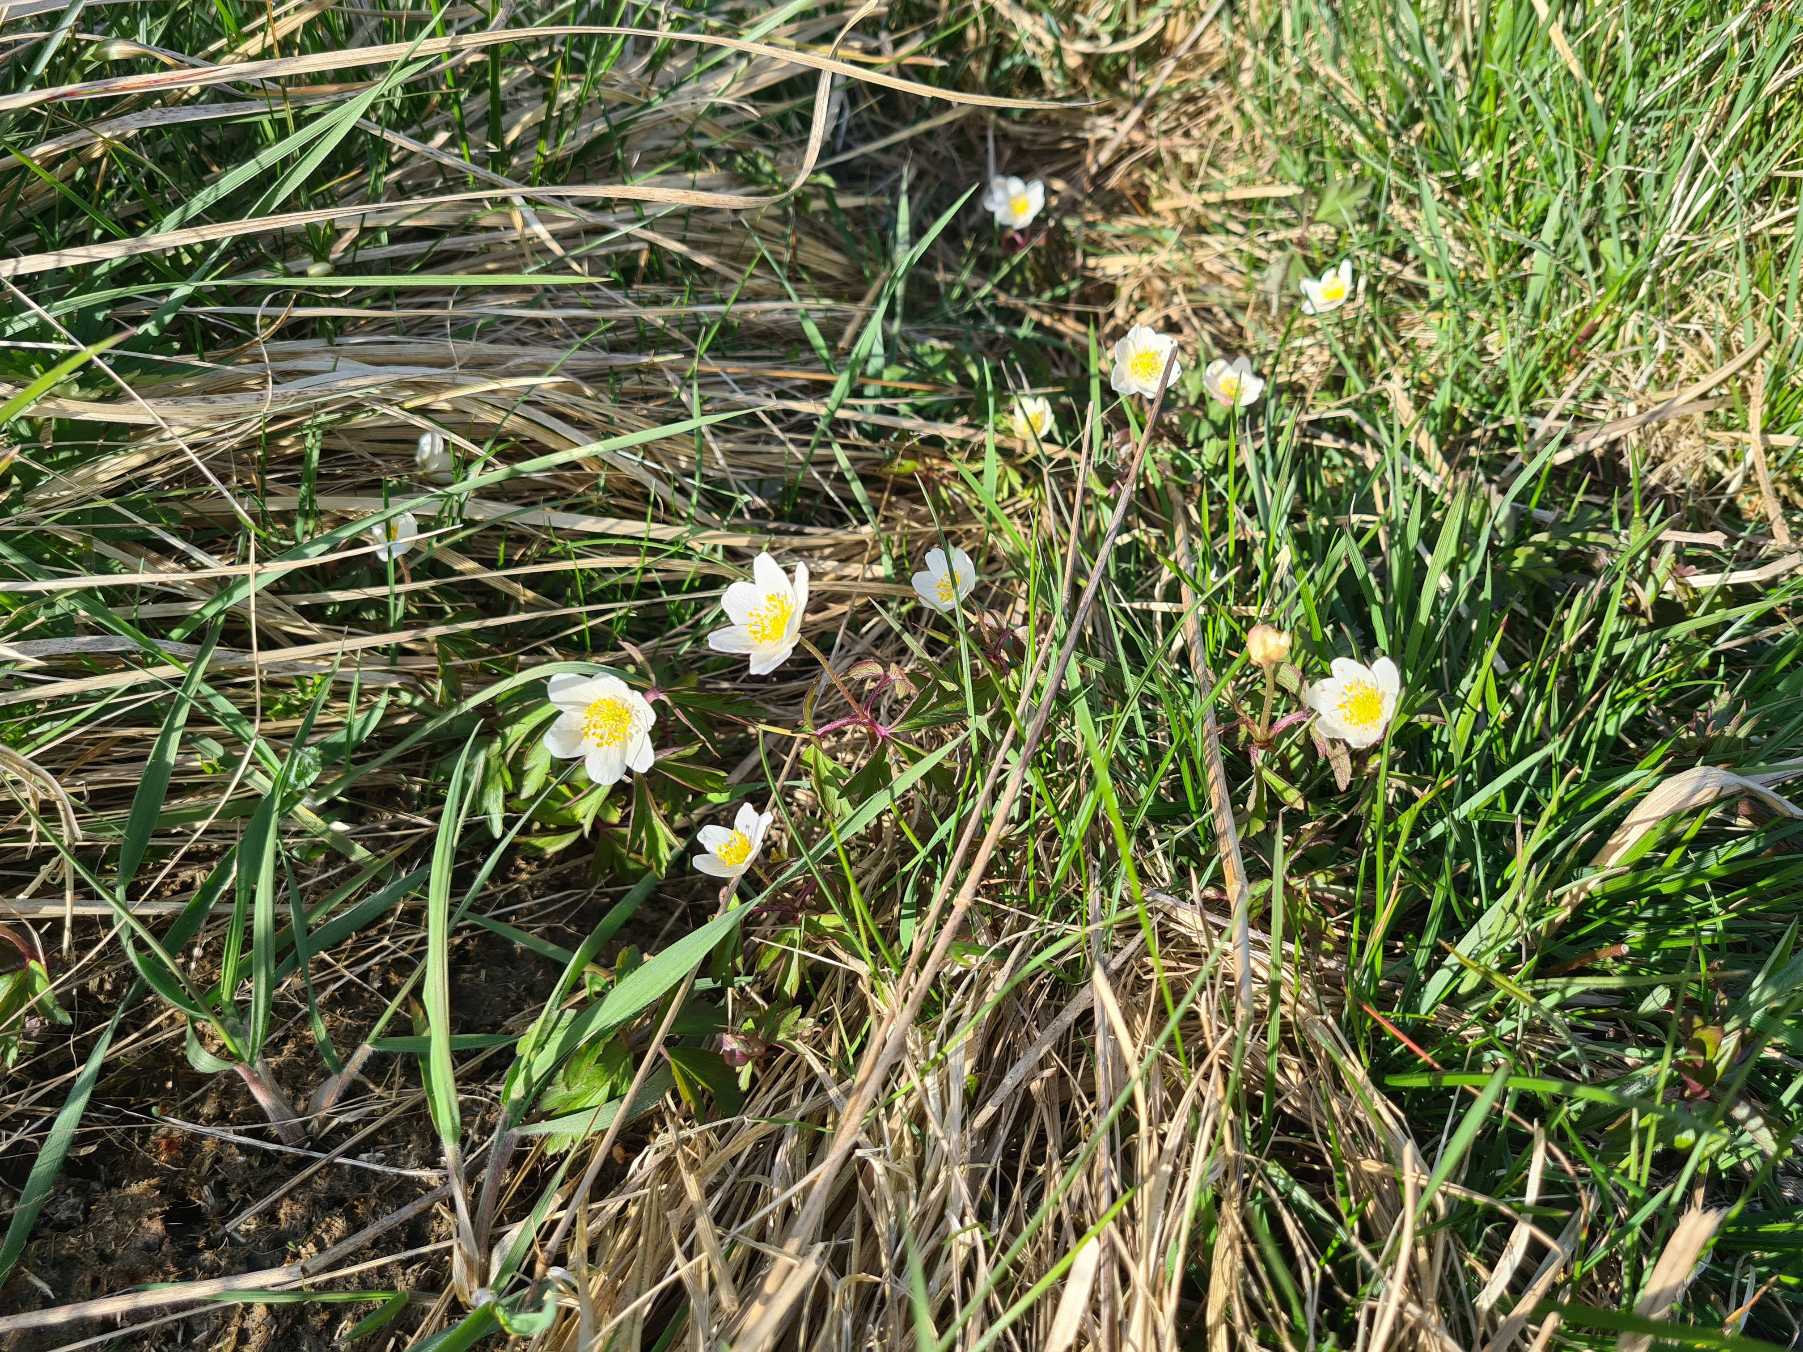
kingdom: Plantae
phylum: Tracheophyta
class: Magnoliopsida
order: Ranunculales
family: Ranunculaceae
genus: Anemone
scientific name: Anemone nemorosa
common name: Hvid anemone
